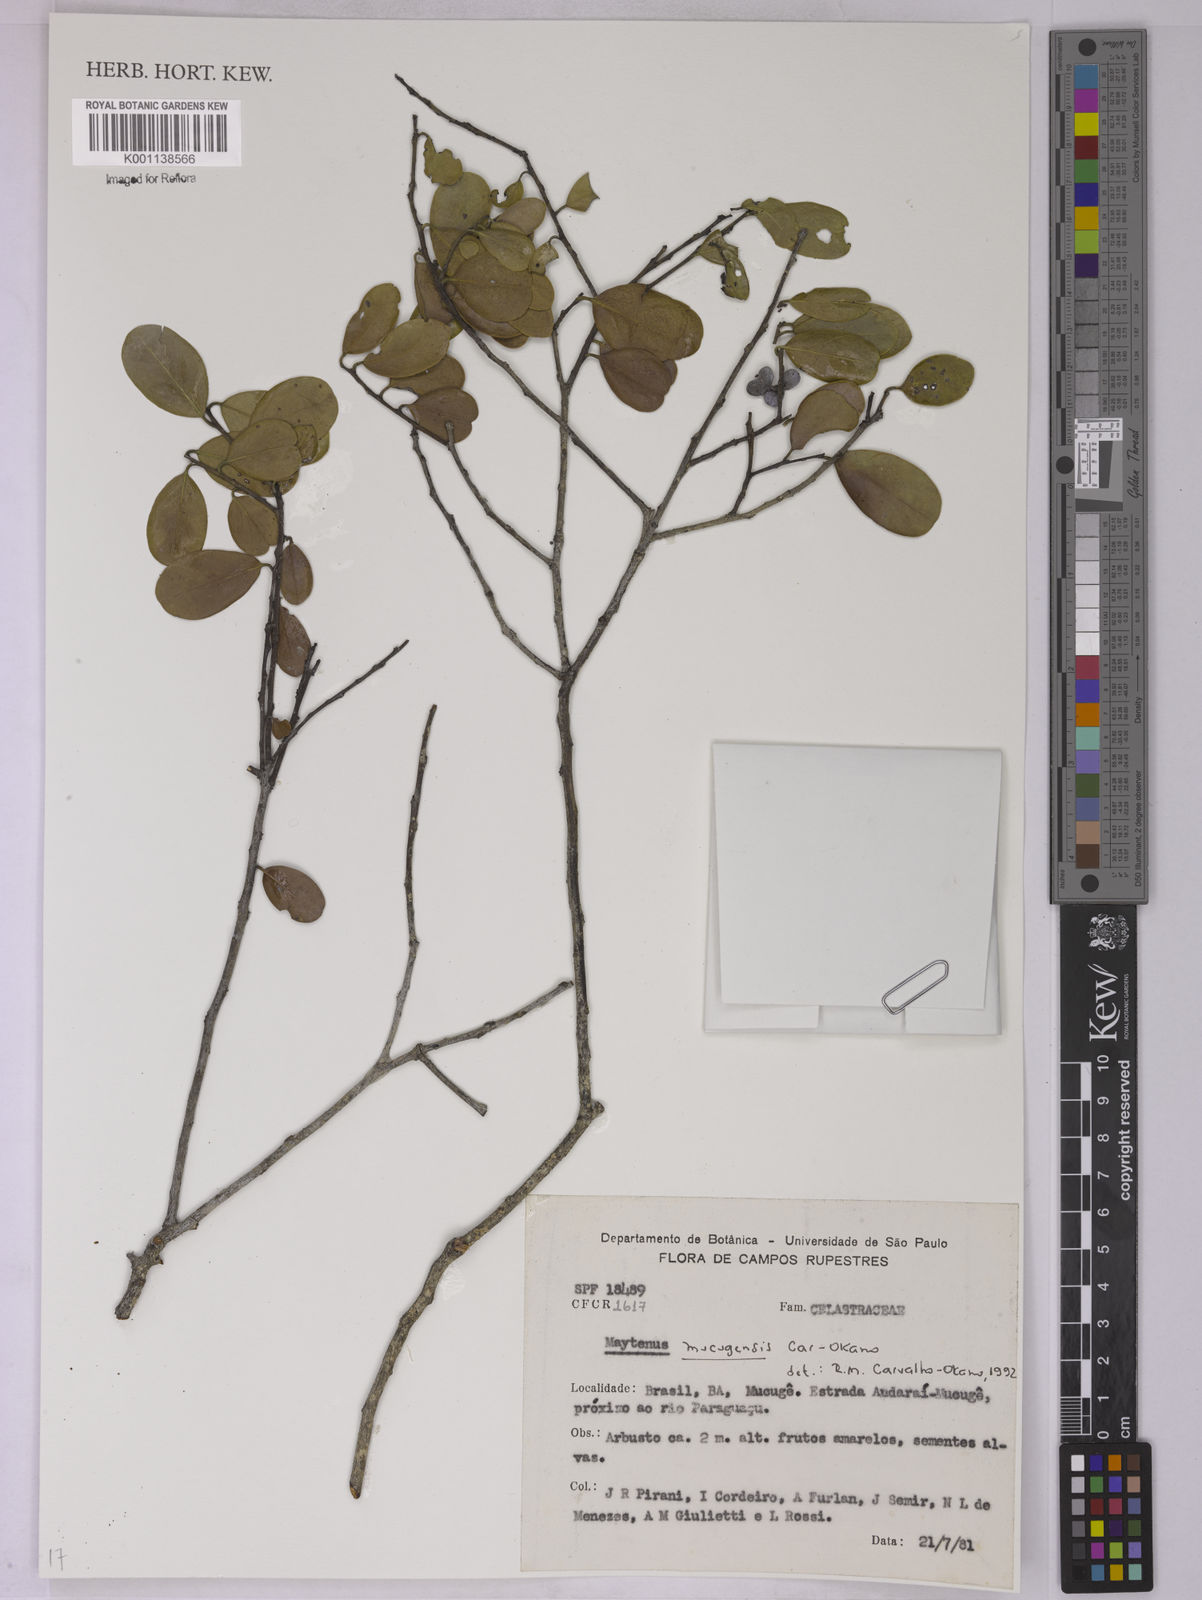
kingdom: Plantae
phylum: Tracheophyta
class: Magnoliopsida
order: Celastrales
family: Celastraceae
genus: Monteverdia
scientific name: Monteverdia mucugensis
